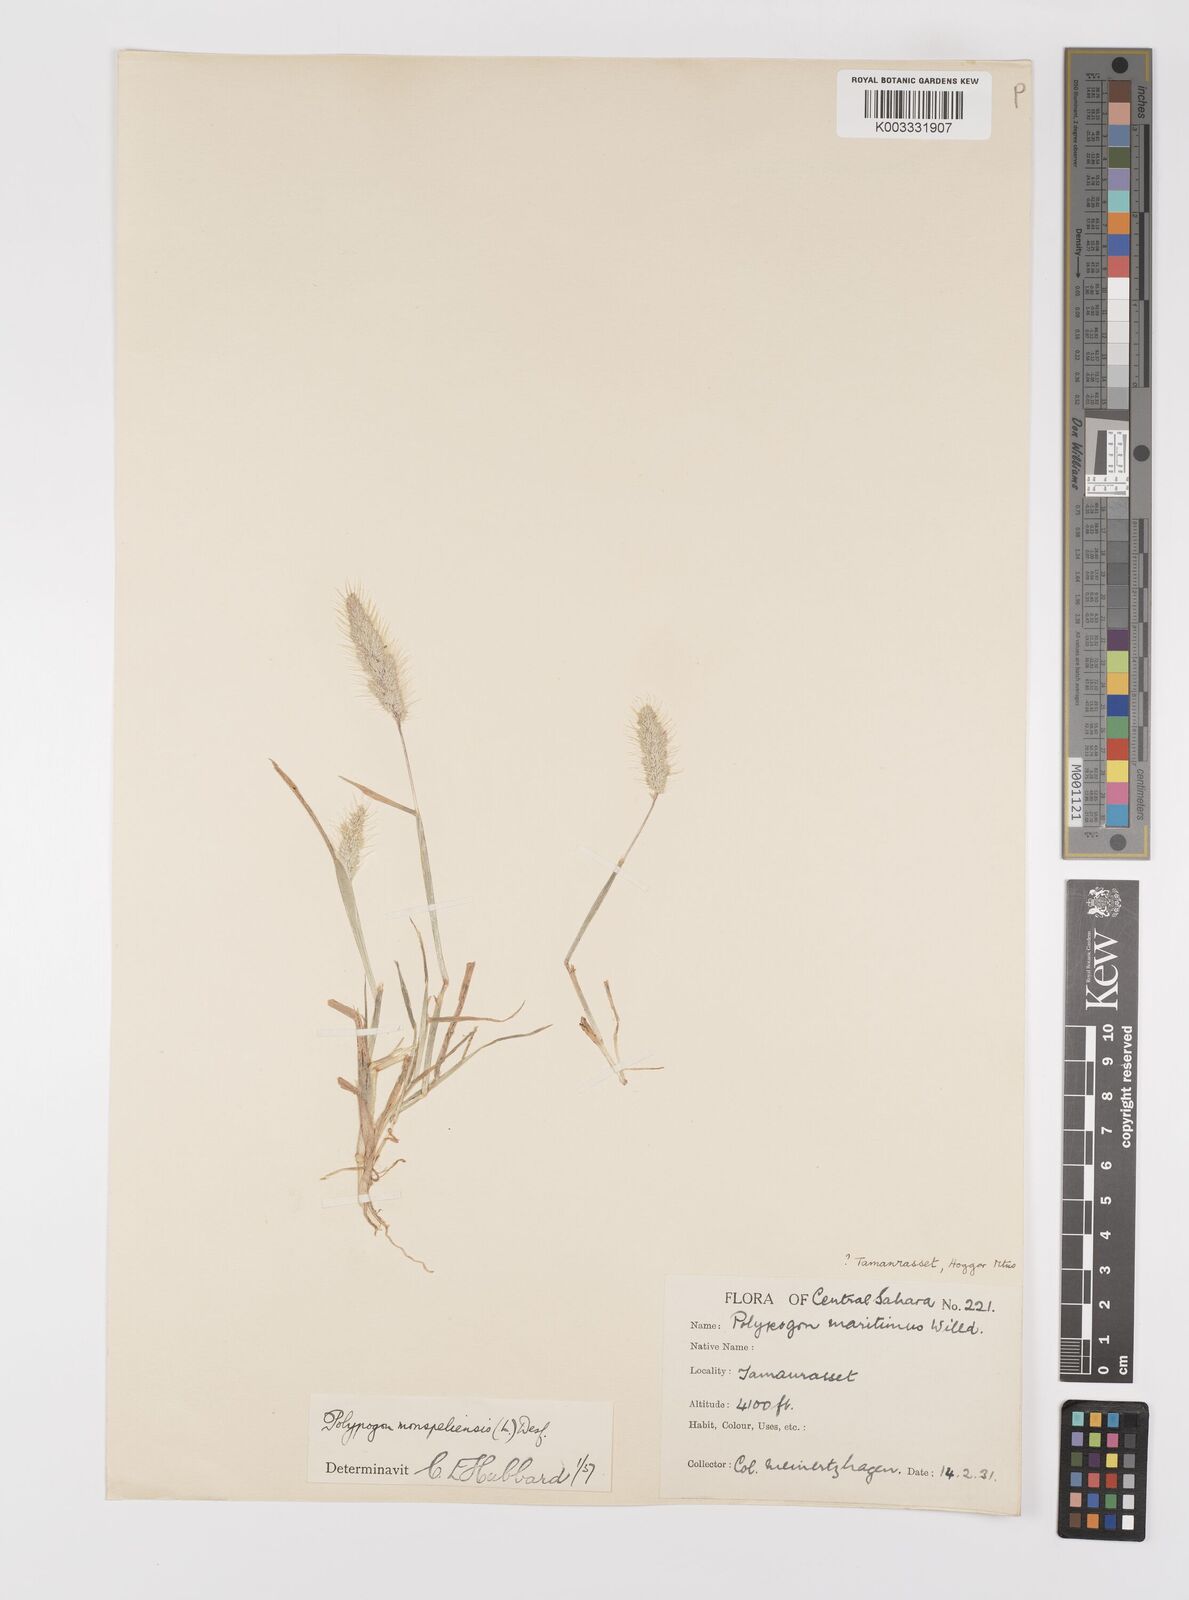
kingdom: Plantae
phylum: Tracheophyta
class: Liliopsida
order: Poales
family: Poaceae
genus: Polypogon
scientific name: Polypogon monspeliensis
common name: Annual rabbitsfoot grass
